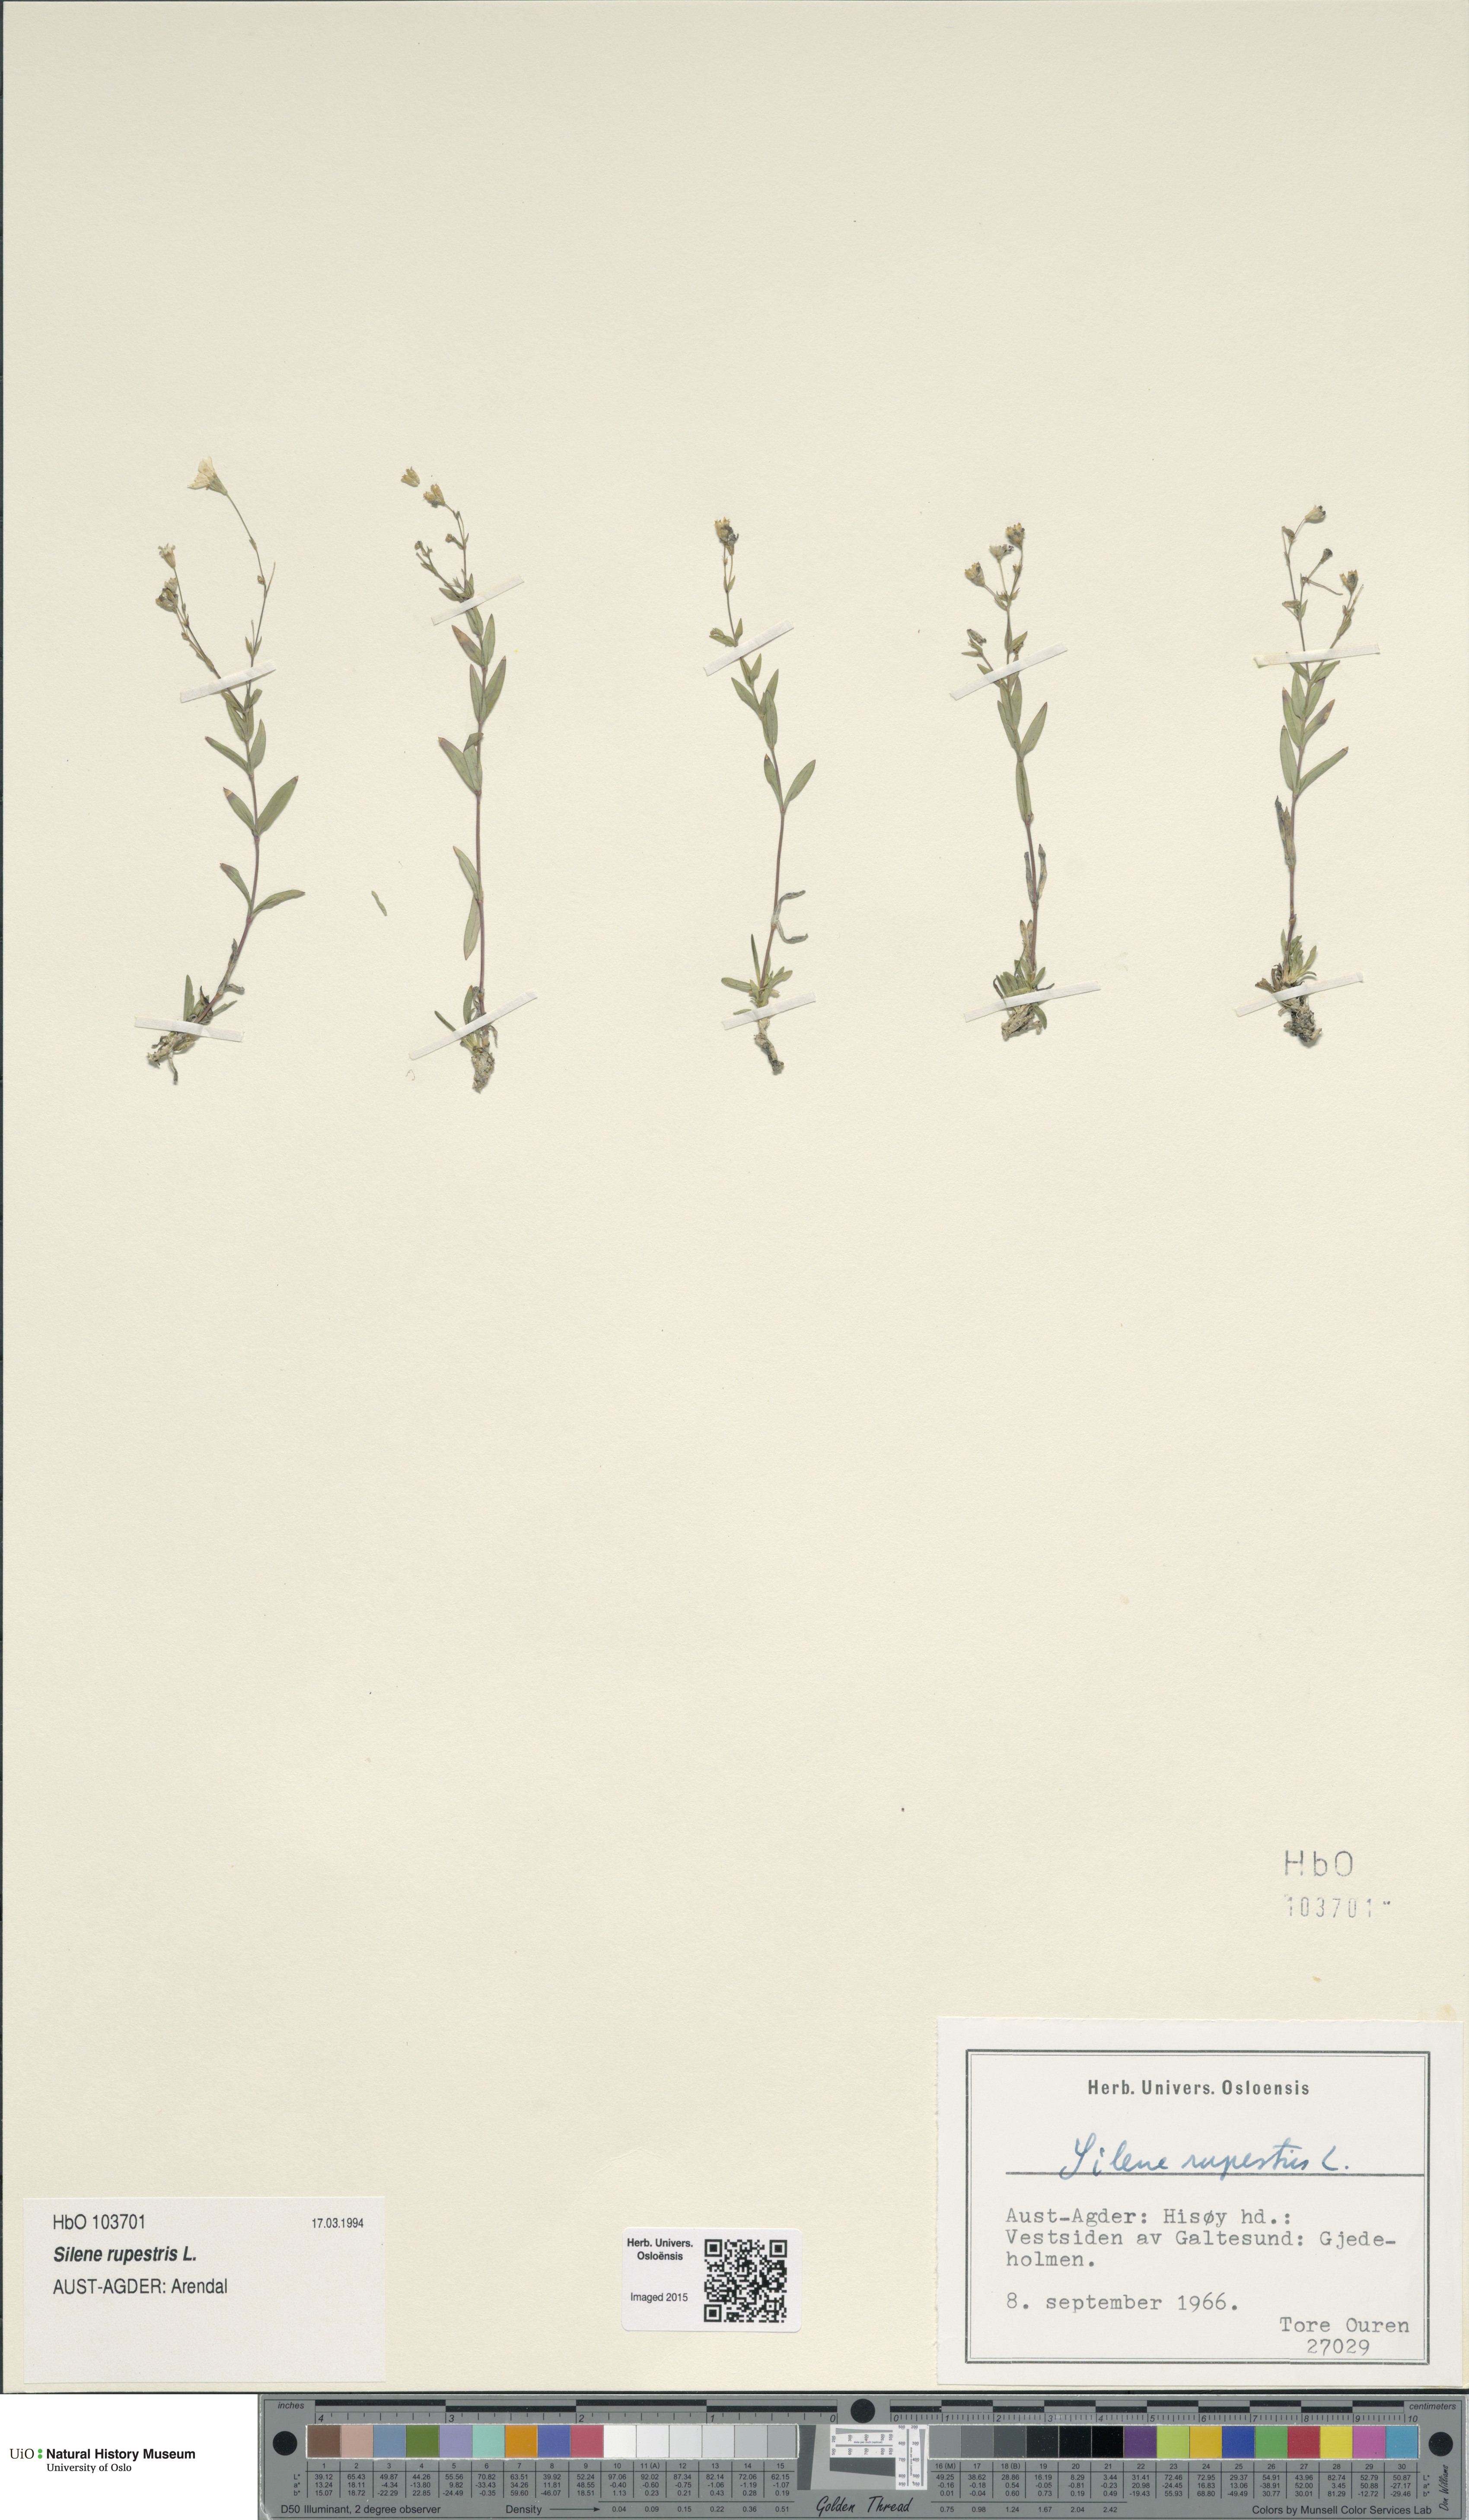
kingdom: Plantae
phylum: Tracheophyta
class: Magnoliopsida
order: Caryophyllales
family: Caryophyllaceae
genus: Atocion
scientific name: Atocion rupestre
